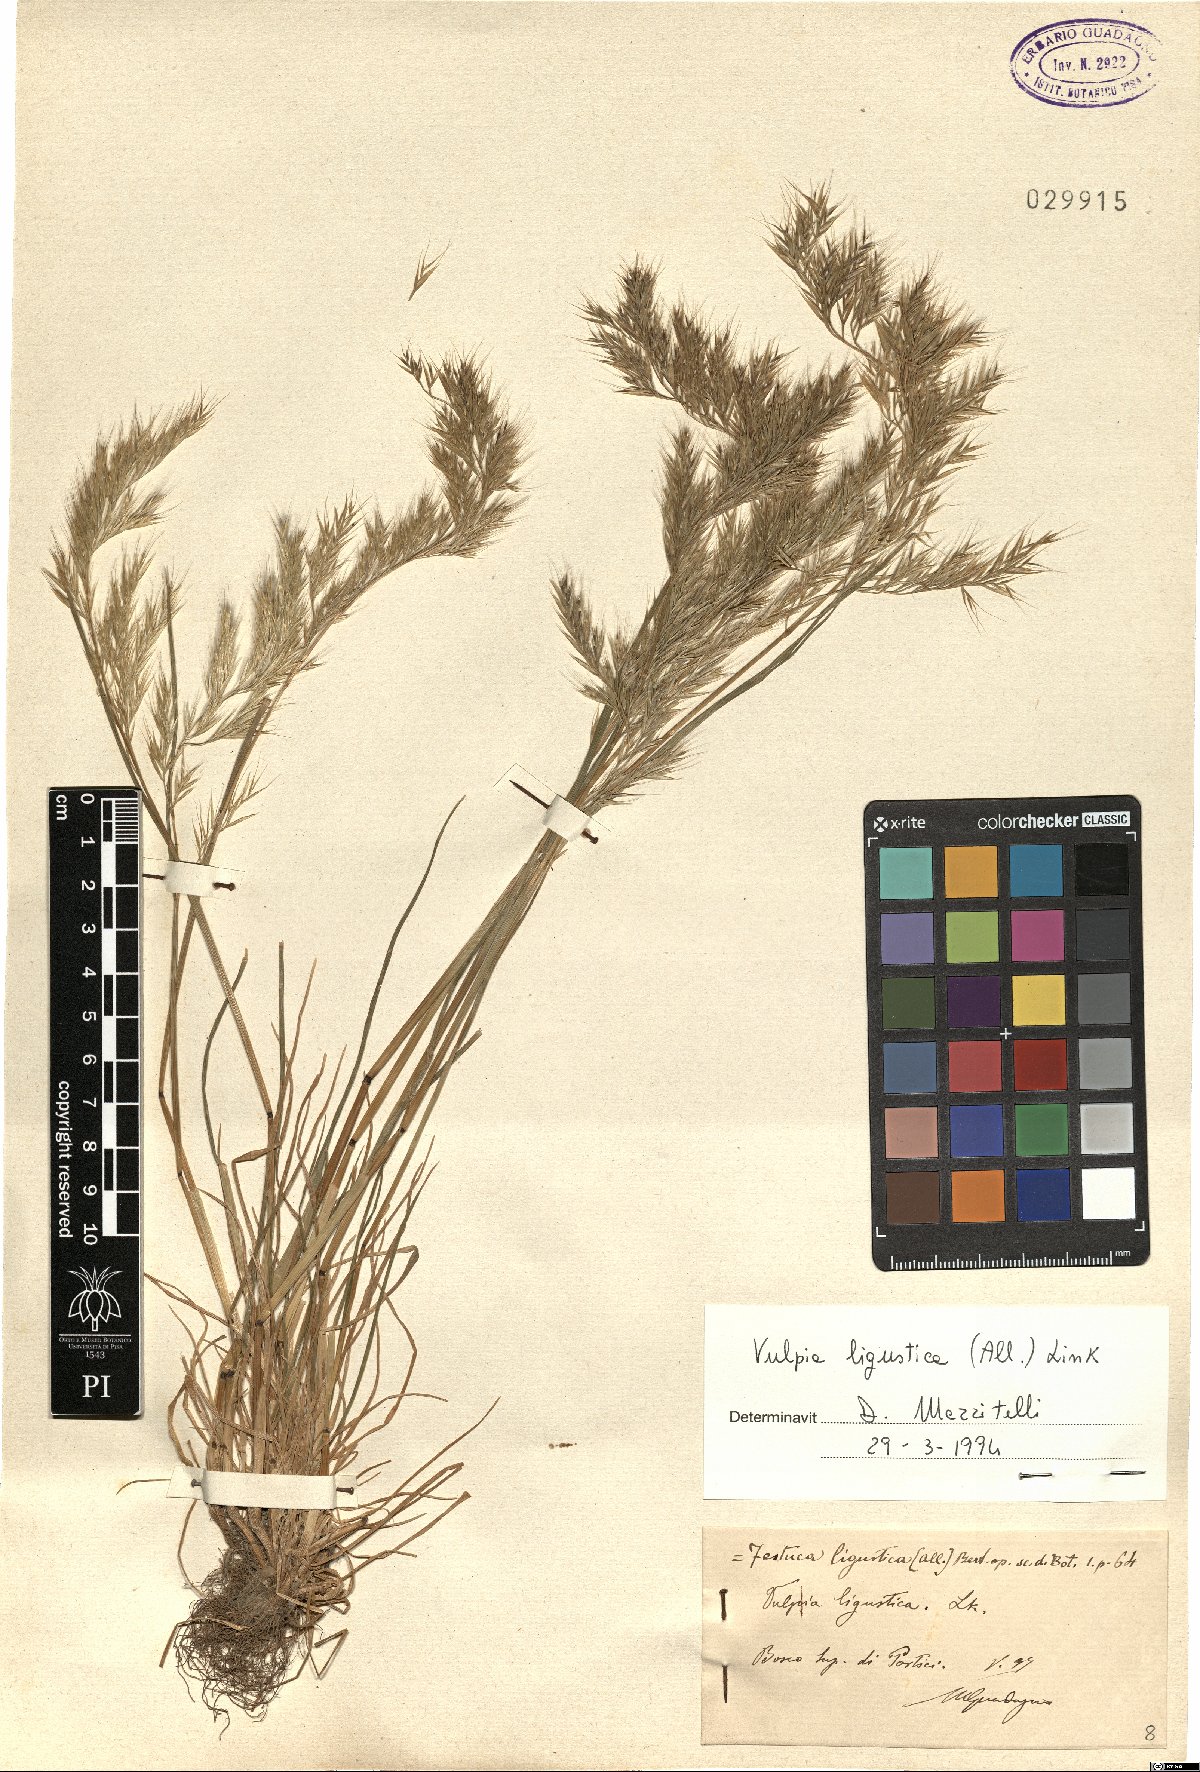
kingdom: Plantae
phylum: Tracheophyta
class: Liliopsida
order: Poales
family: Poaceae
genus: Festuca
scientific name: Festuca ligustica
